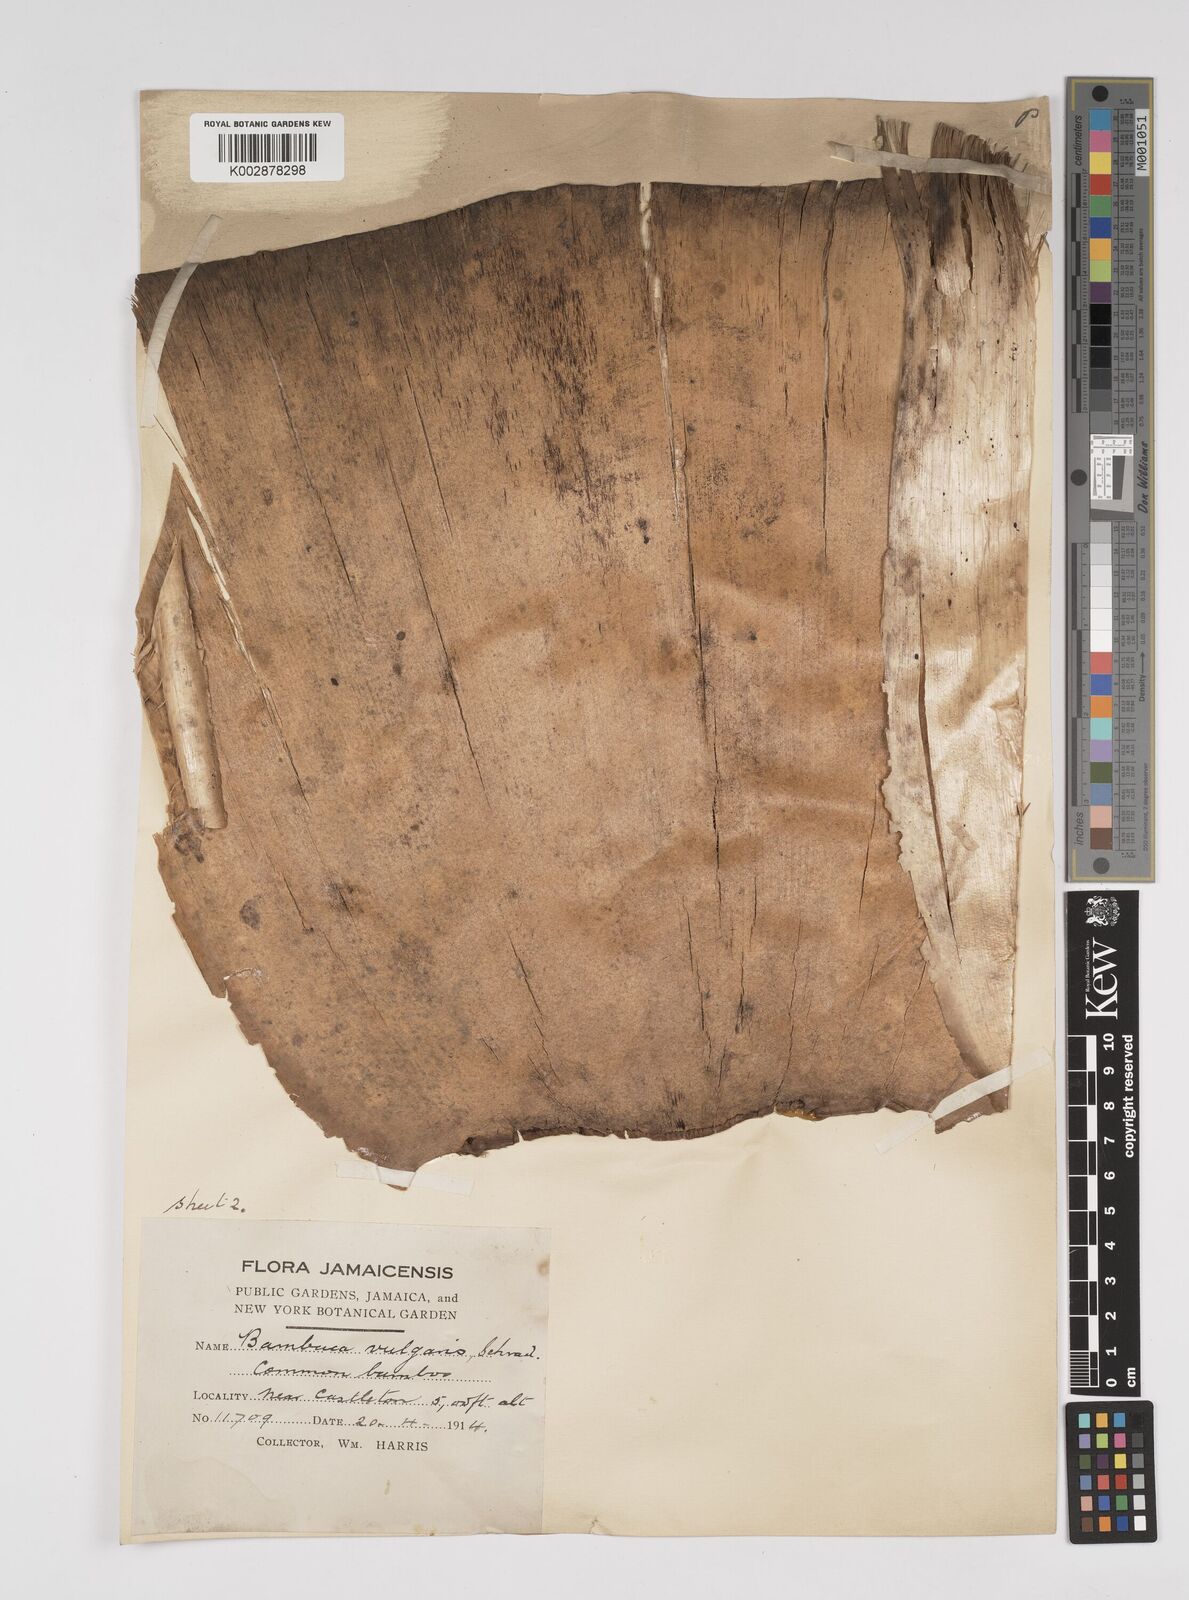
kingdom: Plantae
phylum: Tracheophyta
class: Liliopsida
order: Poales
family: Poaceae
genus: Bambusa
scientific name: Bambusa vulgaris
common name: Common bamboo
